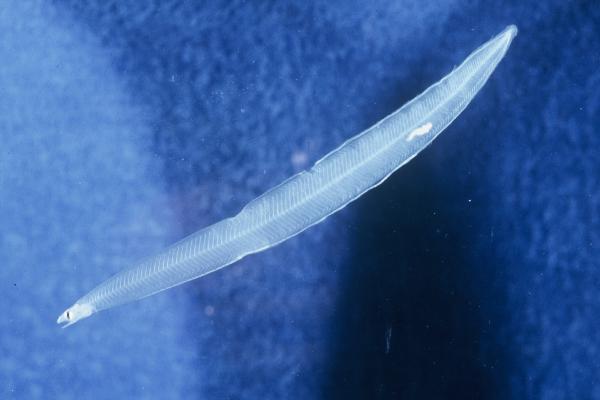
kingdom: Animalia
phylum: Chordata
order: Anguilliformes
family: Ophichthidae
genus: Bascanichthys
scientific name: Bascanichthys
